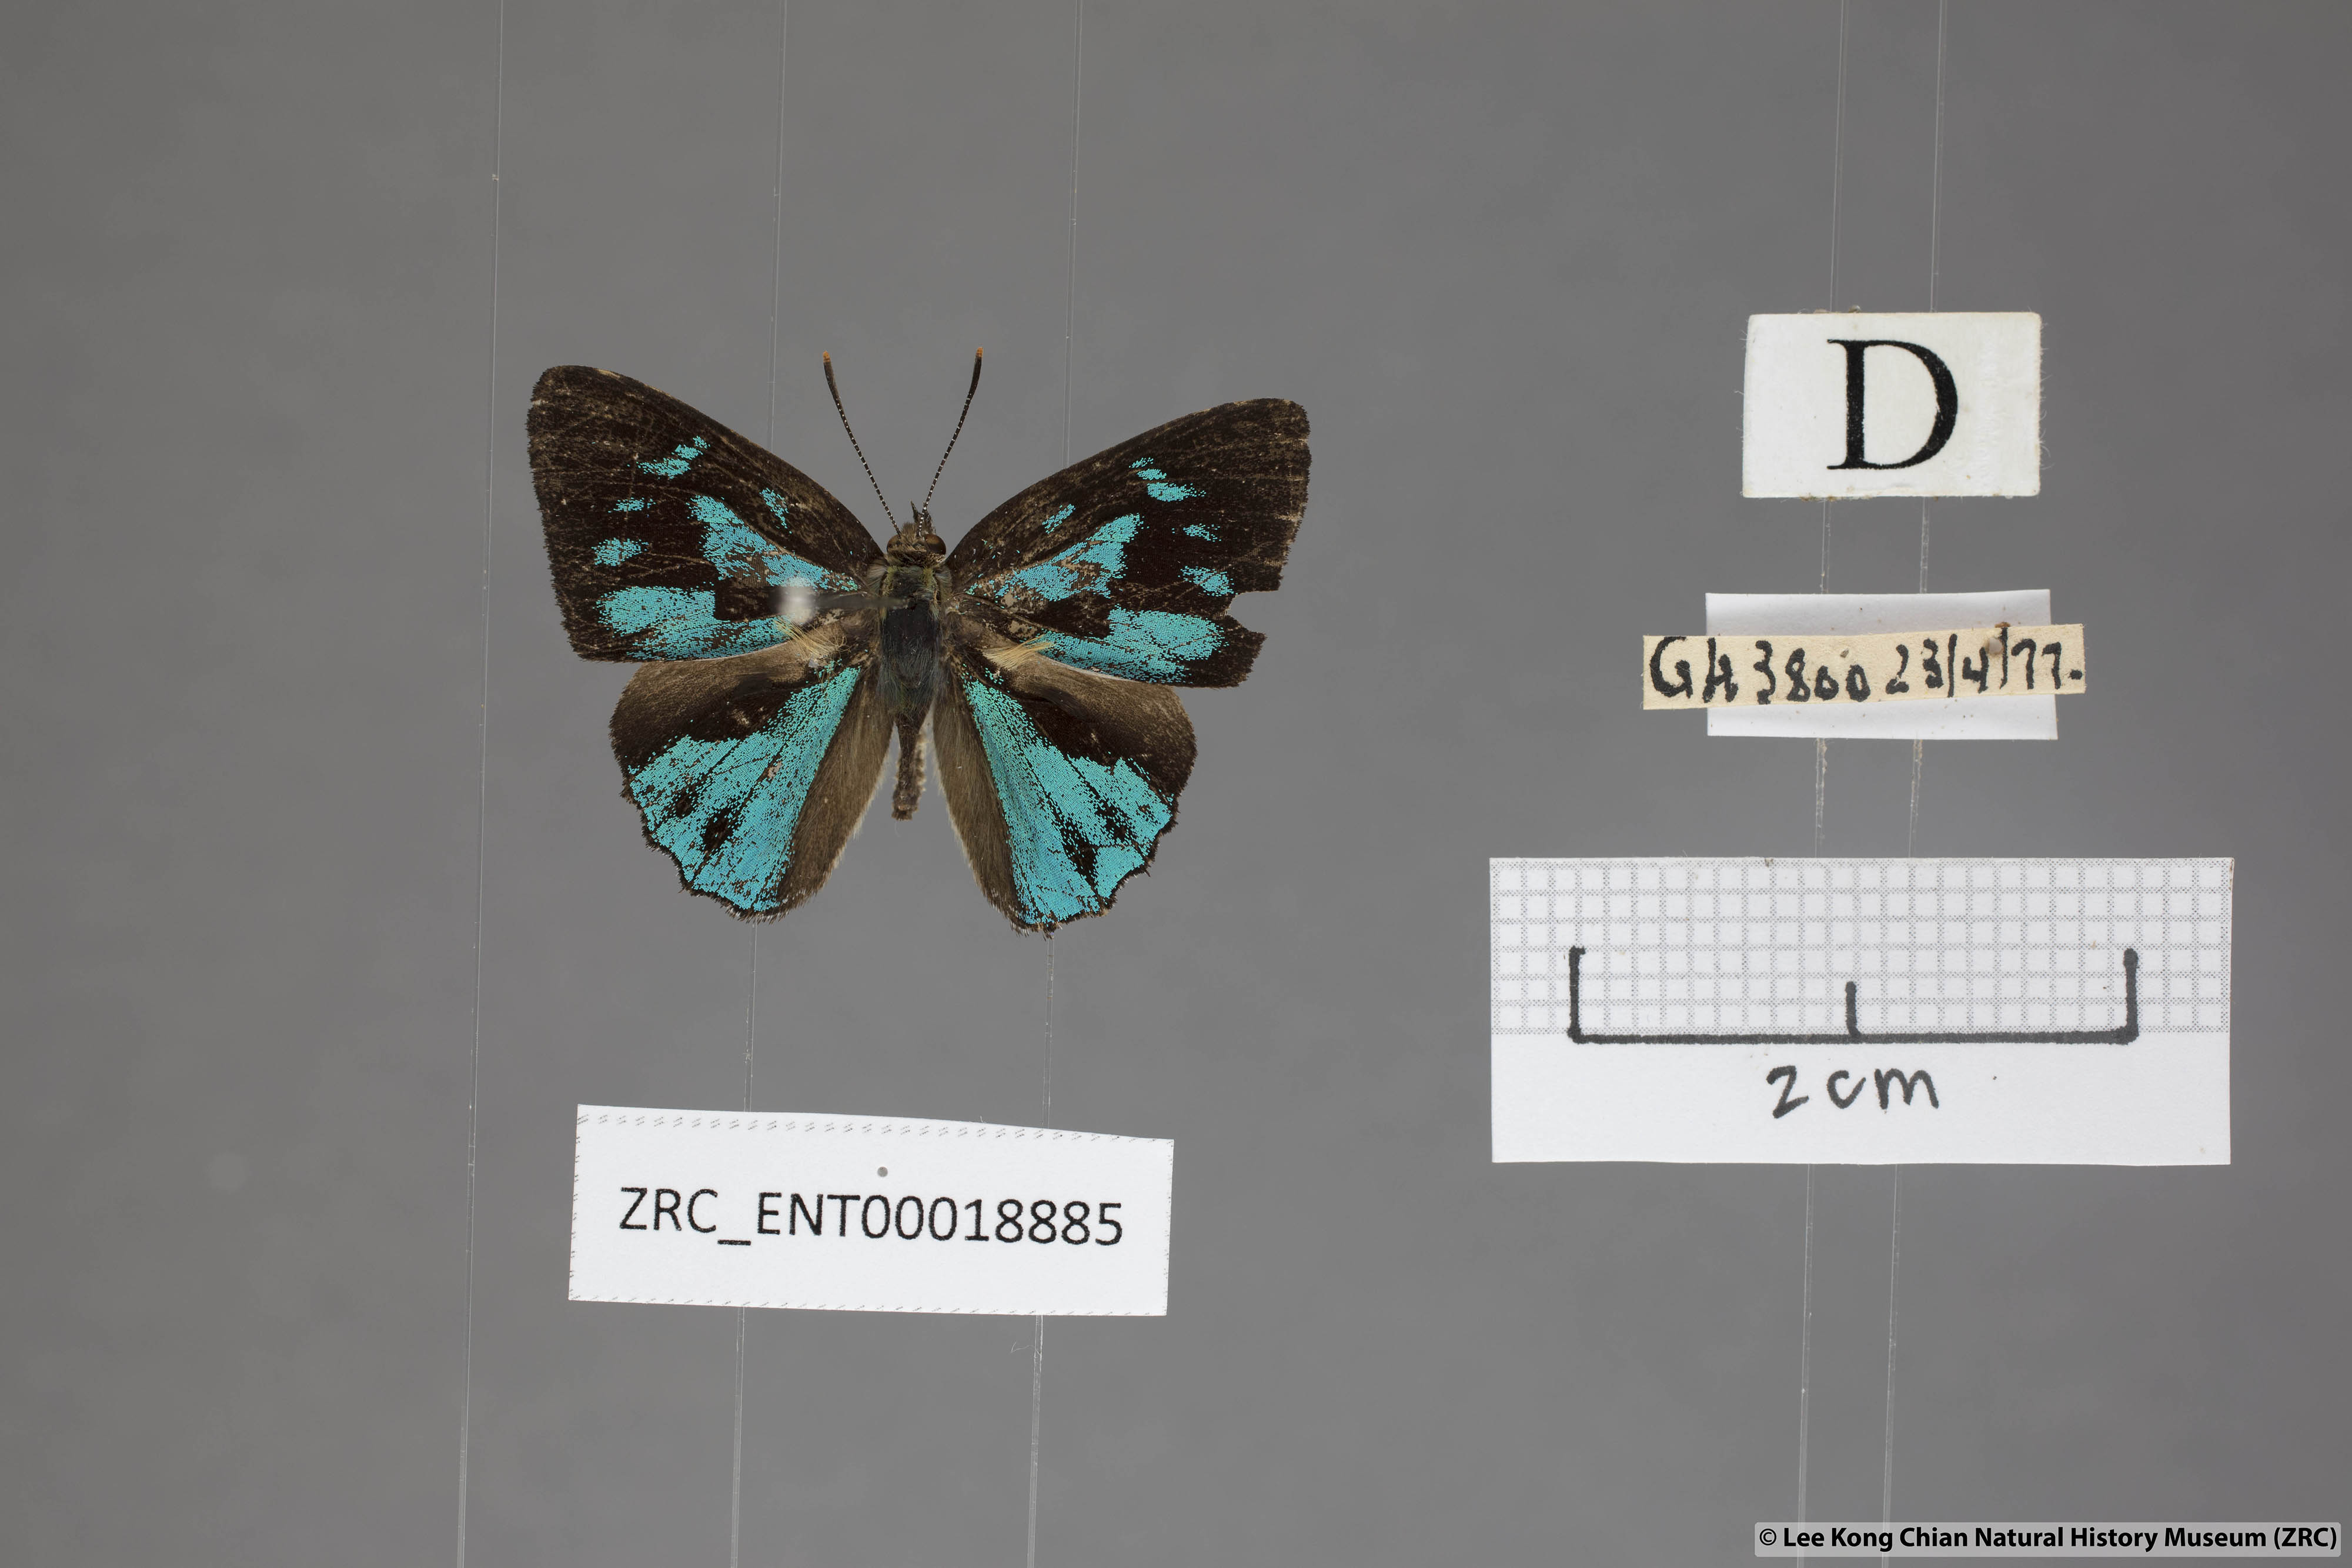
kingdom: Animalia
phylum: Arthropoda
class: Insecta
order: Lepidoptera
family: Lycaenidae
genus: Simiskina
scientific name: Simiskina pheretia
